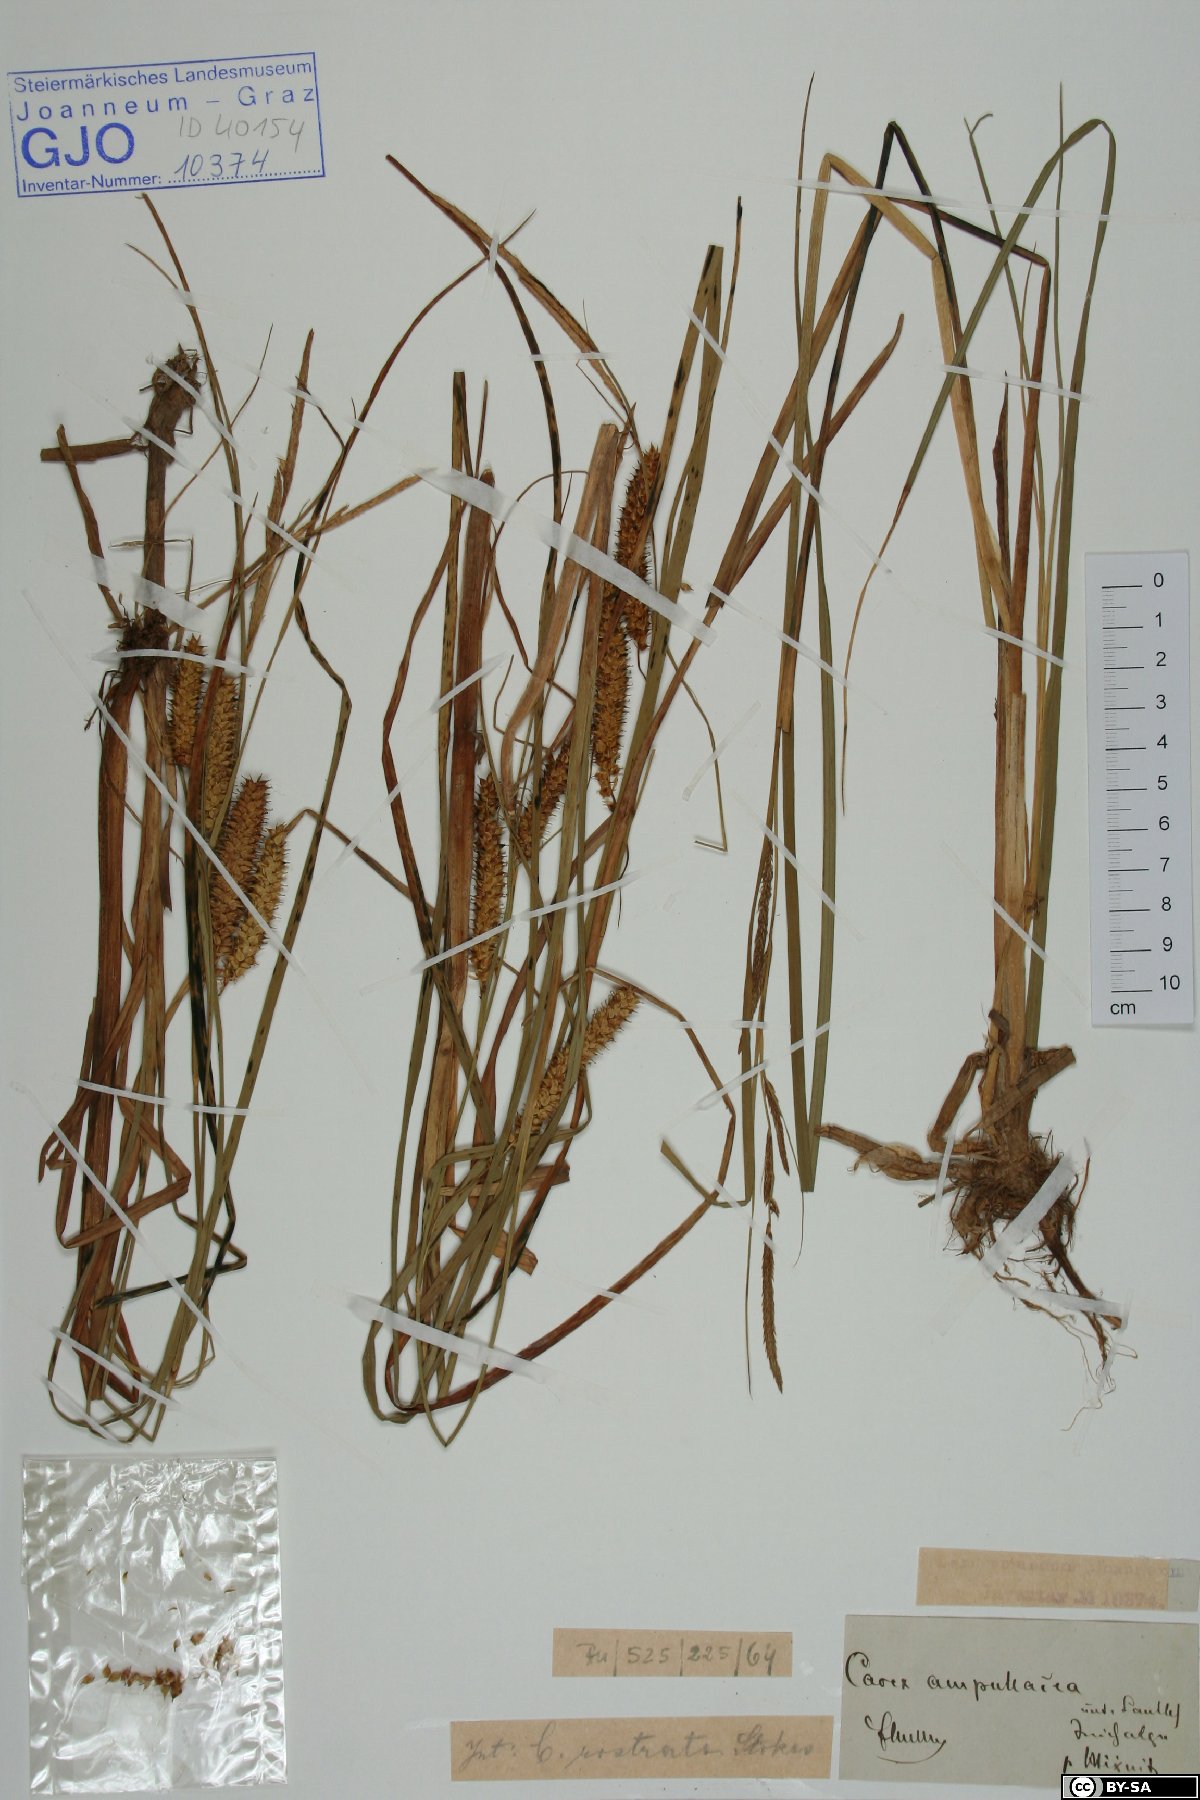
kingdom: Plantae
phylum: Tracheophyta
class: Liliopsida
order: Poales
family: Cyperaceae
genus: Carex
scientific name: Carex rostrata
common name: Bottle sedge
